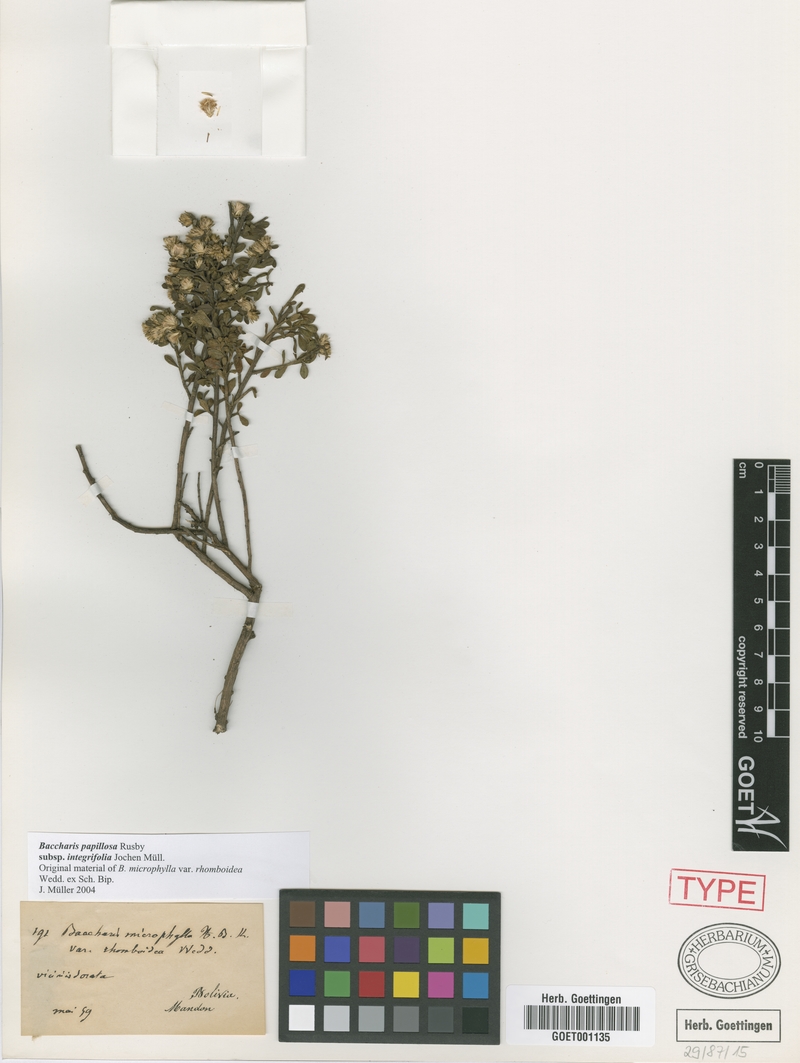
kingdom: Plantae
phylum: Tracheophyta
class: Magnoliopsida
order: Asterales
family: Asteraceae
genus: Baccharis
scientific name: Baccharis integrifolia
